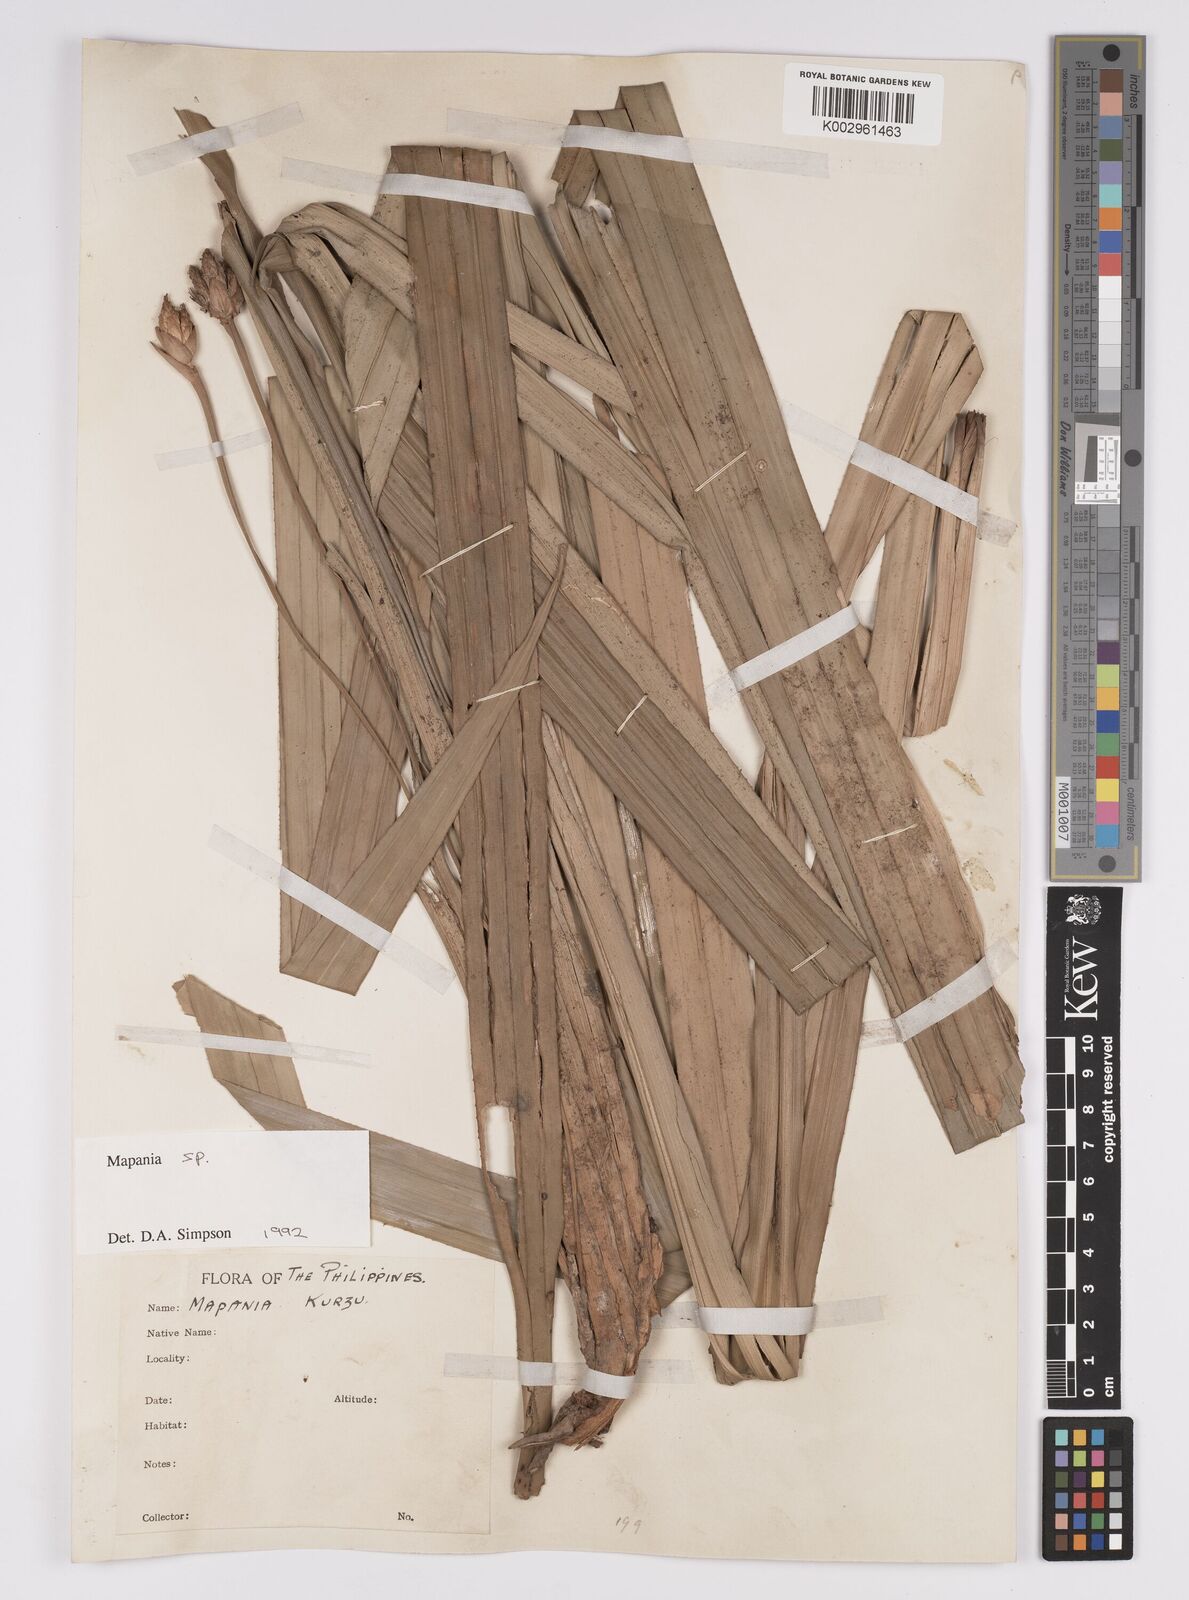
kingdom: Plantae
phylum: Tracheophyta
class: Liliopsida
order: Poales
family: Cyperaceae
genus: Mapania
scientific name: Mapania
